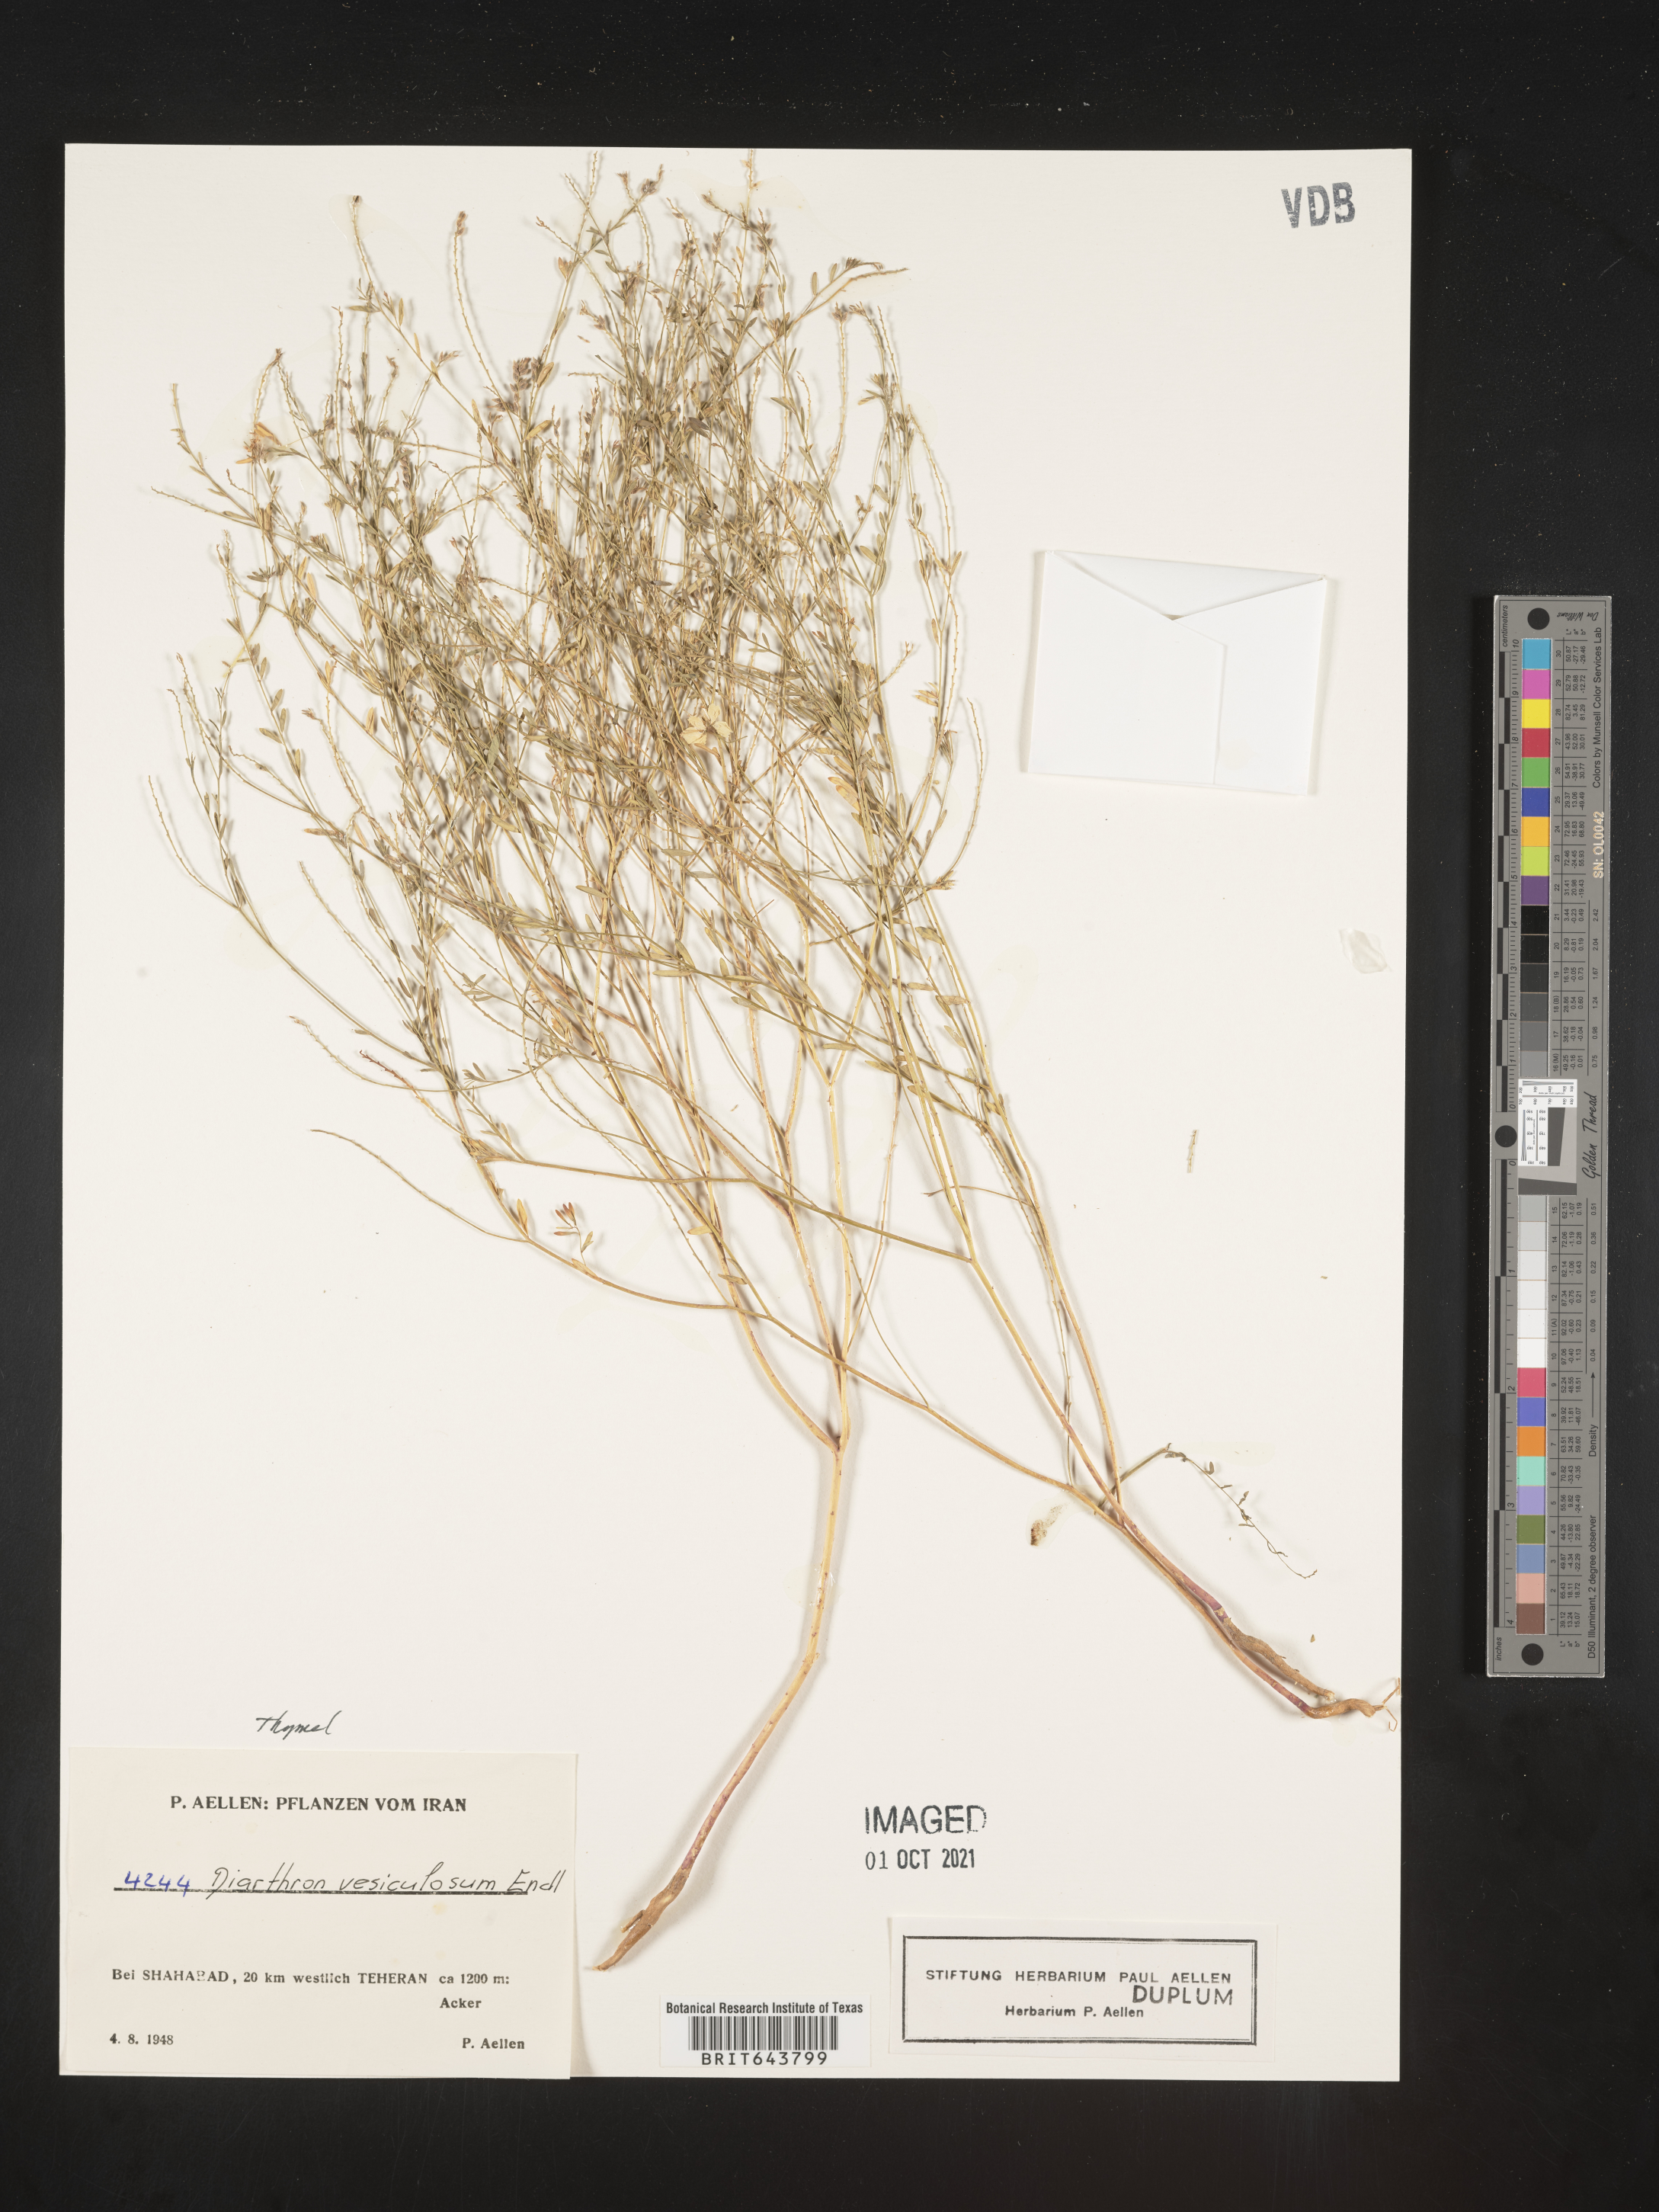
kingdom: Plantae
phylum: Tracheophyta
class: Magnoliopsida
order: Malvales
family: Thymelaeaceae
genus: Diarthron
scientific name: Diarthron vesiculosum
